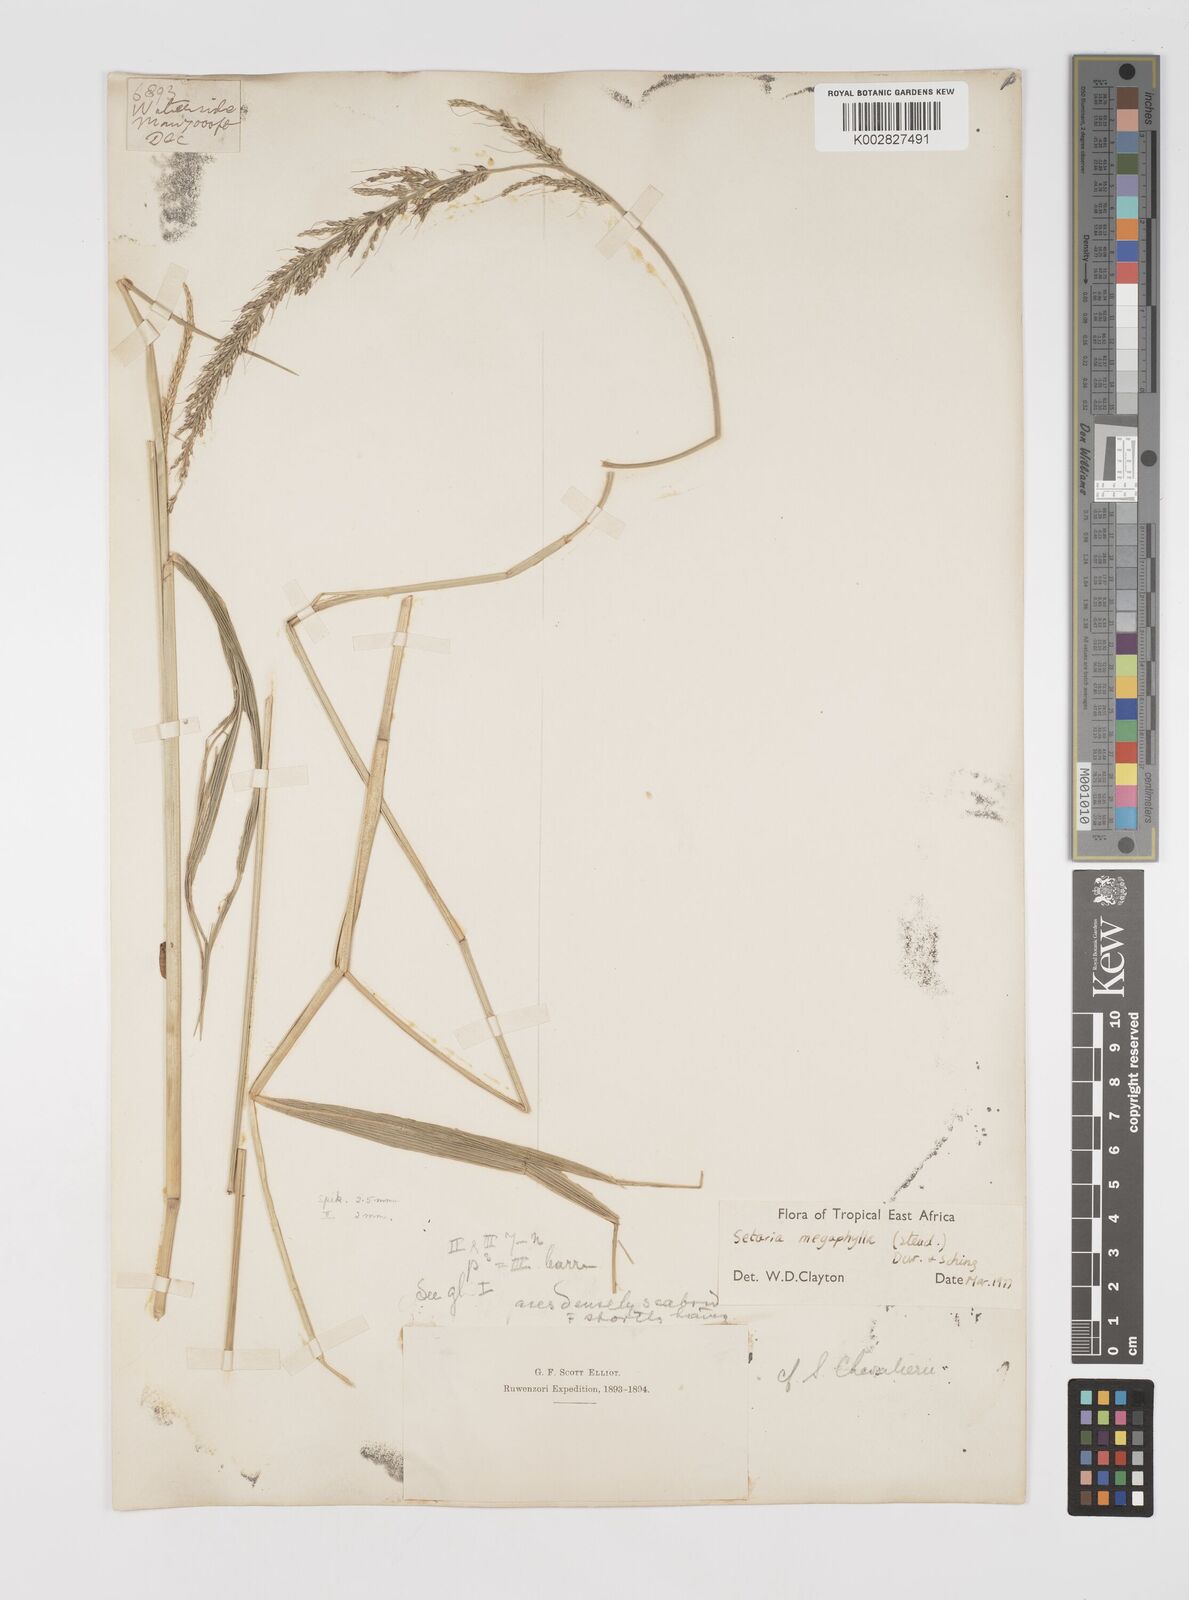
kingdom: Plantae
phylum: Tracheophyta
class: Liliopsida
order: Poales
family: Poaceae
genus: Setaria
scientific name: Setaria megaphylla
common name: Bigleaf bristlegrass
